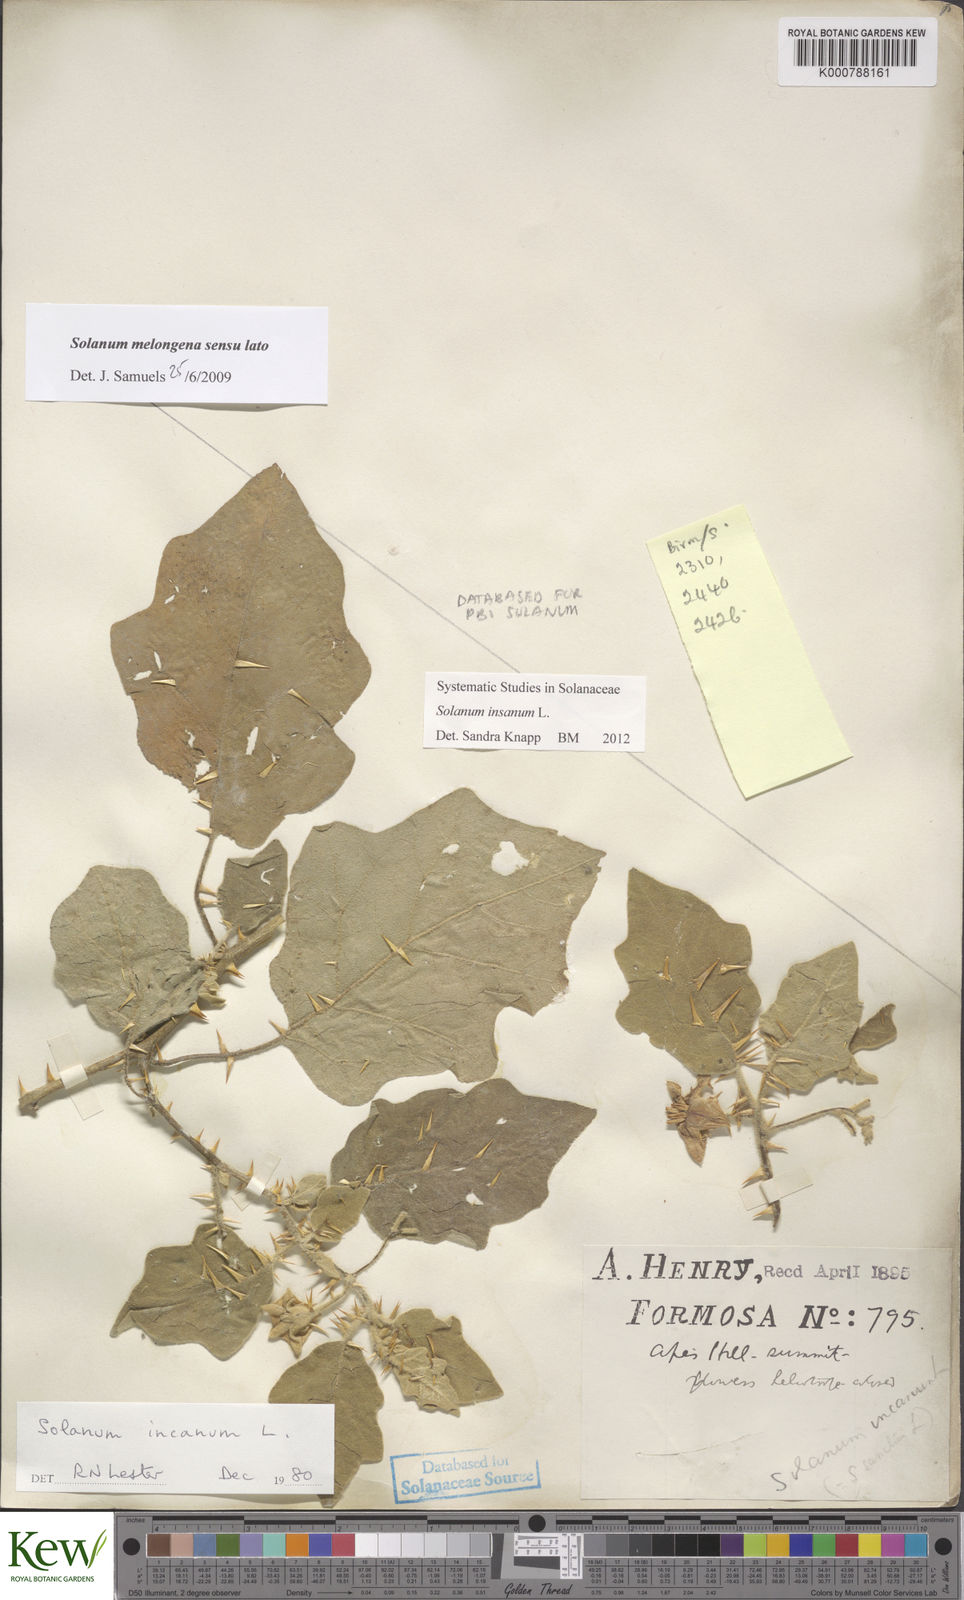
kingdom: Plantae
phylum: Tracheophyta
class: Magnoliopsida
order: Solanales
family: Solanaceae
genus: Solanum
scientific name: Solanum insanum
